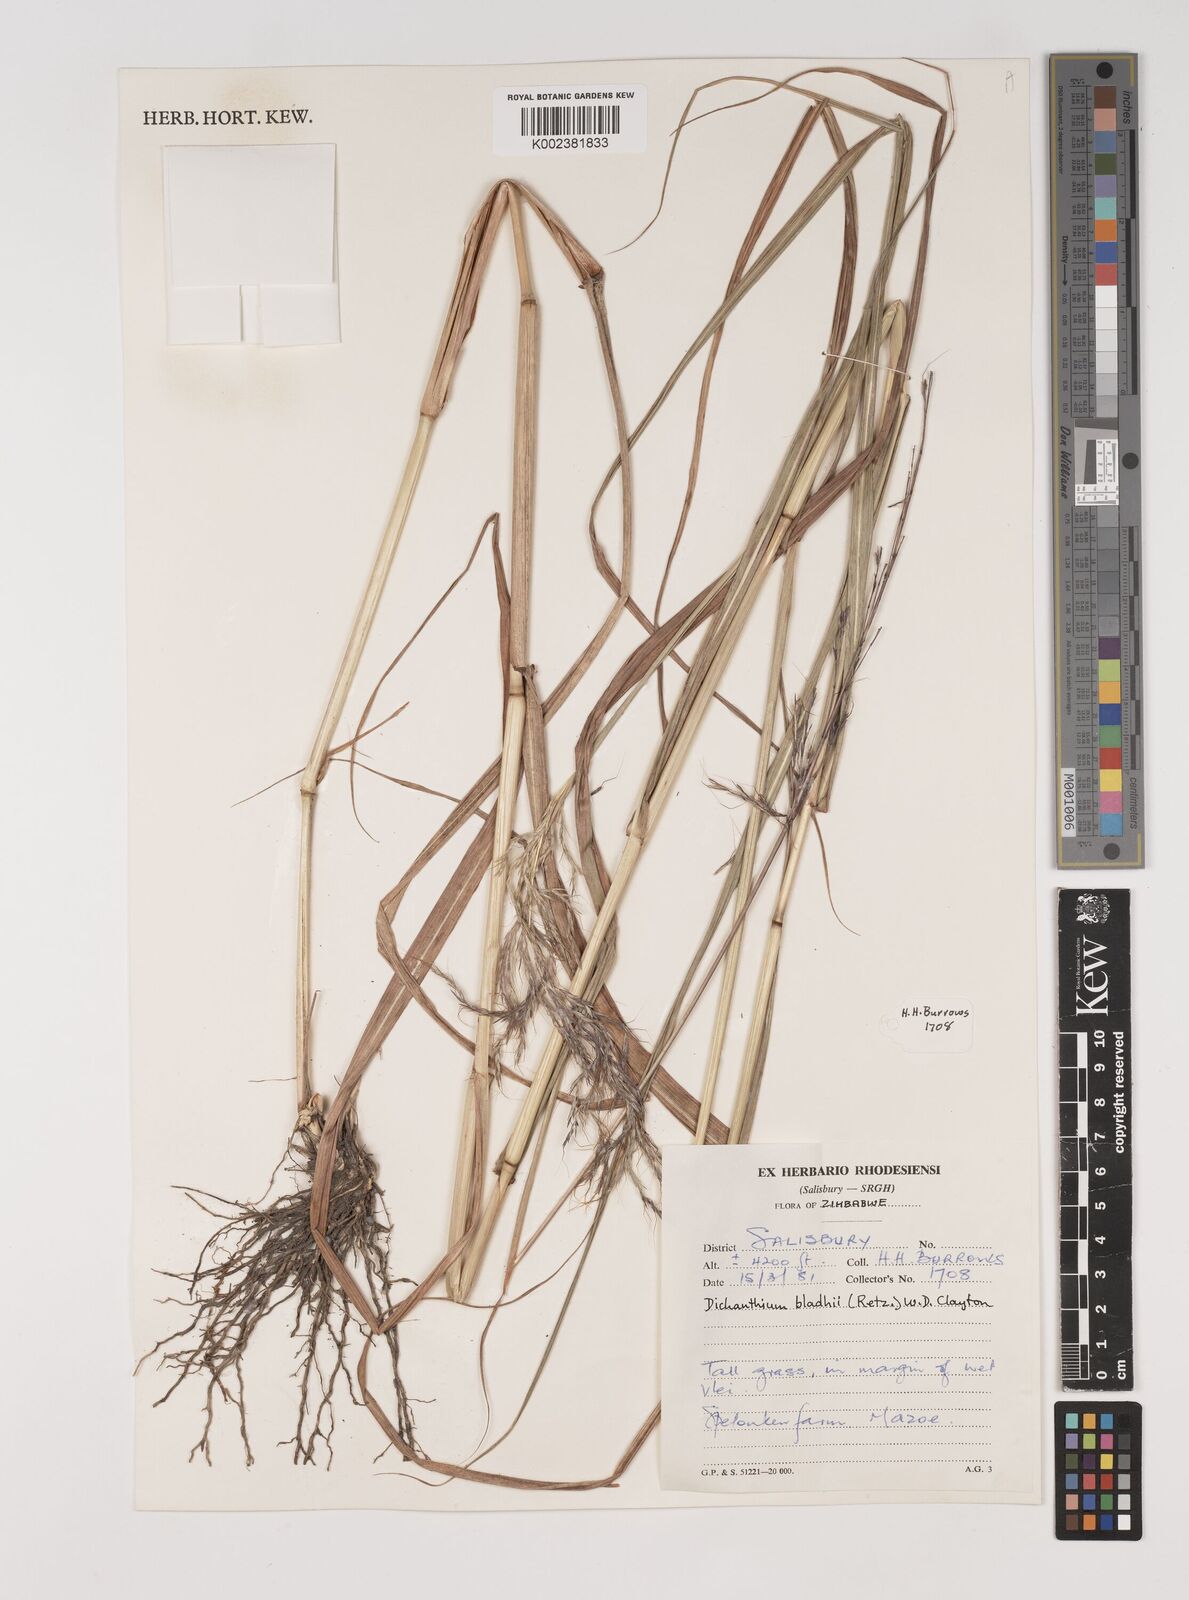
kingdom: Plantae
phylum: Tracheophyta
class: Liliopsida
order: Poales
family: Poaceae
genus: Bothriochloa
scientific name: Bothriochloa bladhii
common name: Caucasian bluestem
